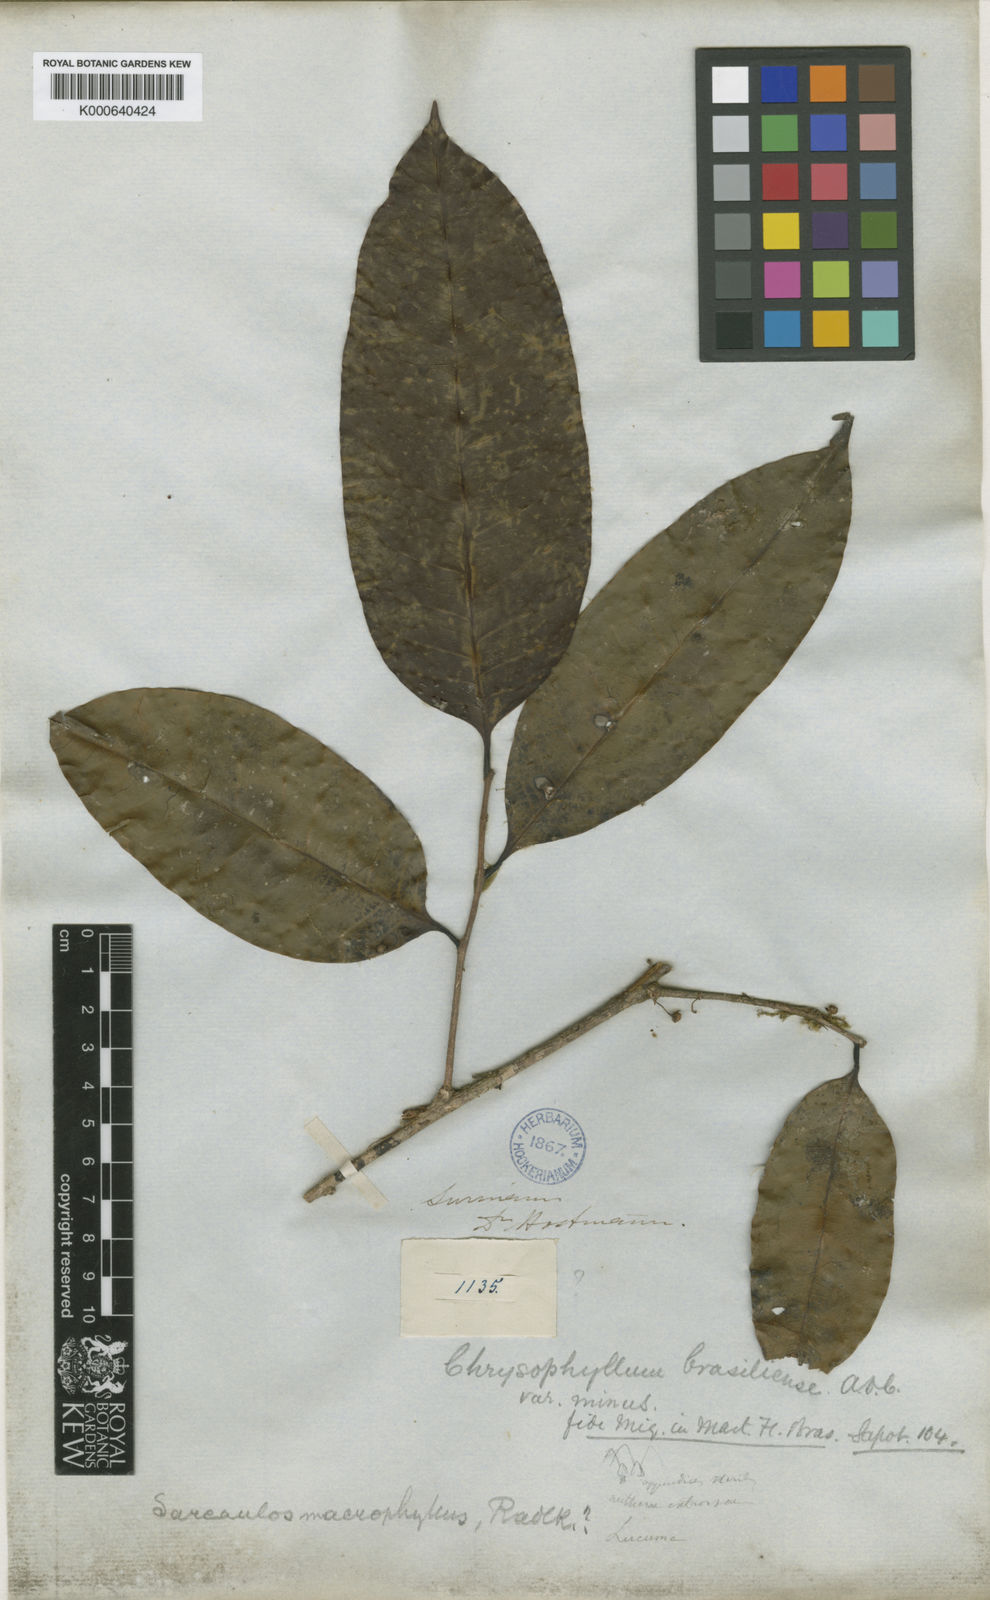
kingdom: Plantae
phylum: Tracheophyta
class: Magnoliopsida
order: Ericales
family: Sapotaceae
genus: Sarcaulus
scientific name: Sarcaulus brasiliensis
